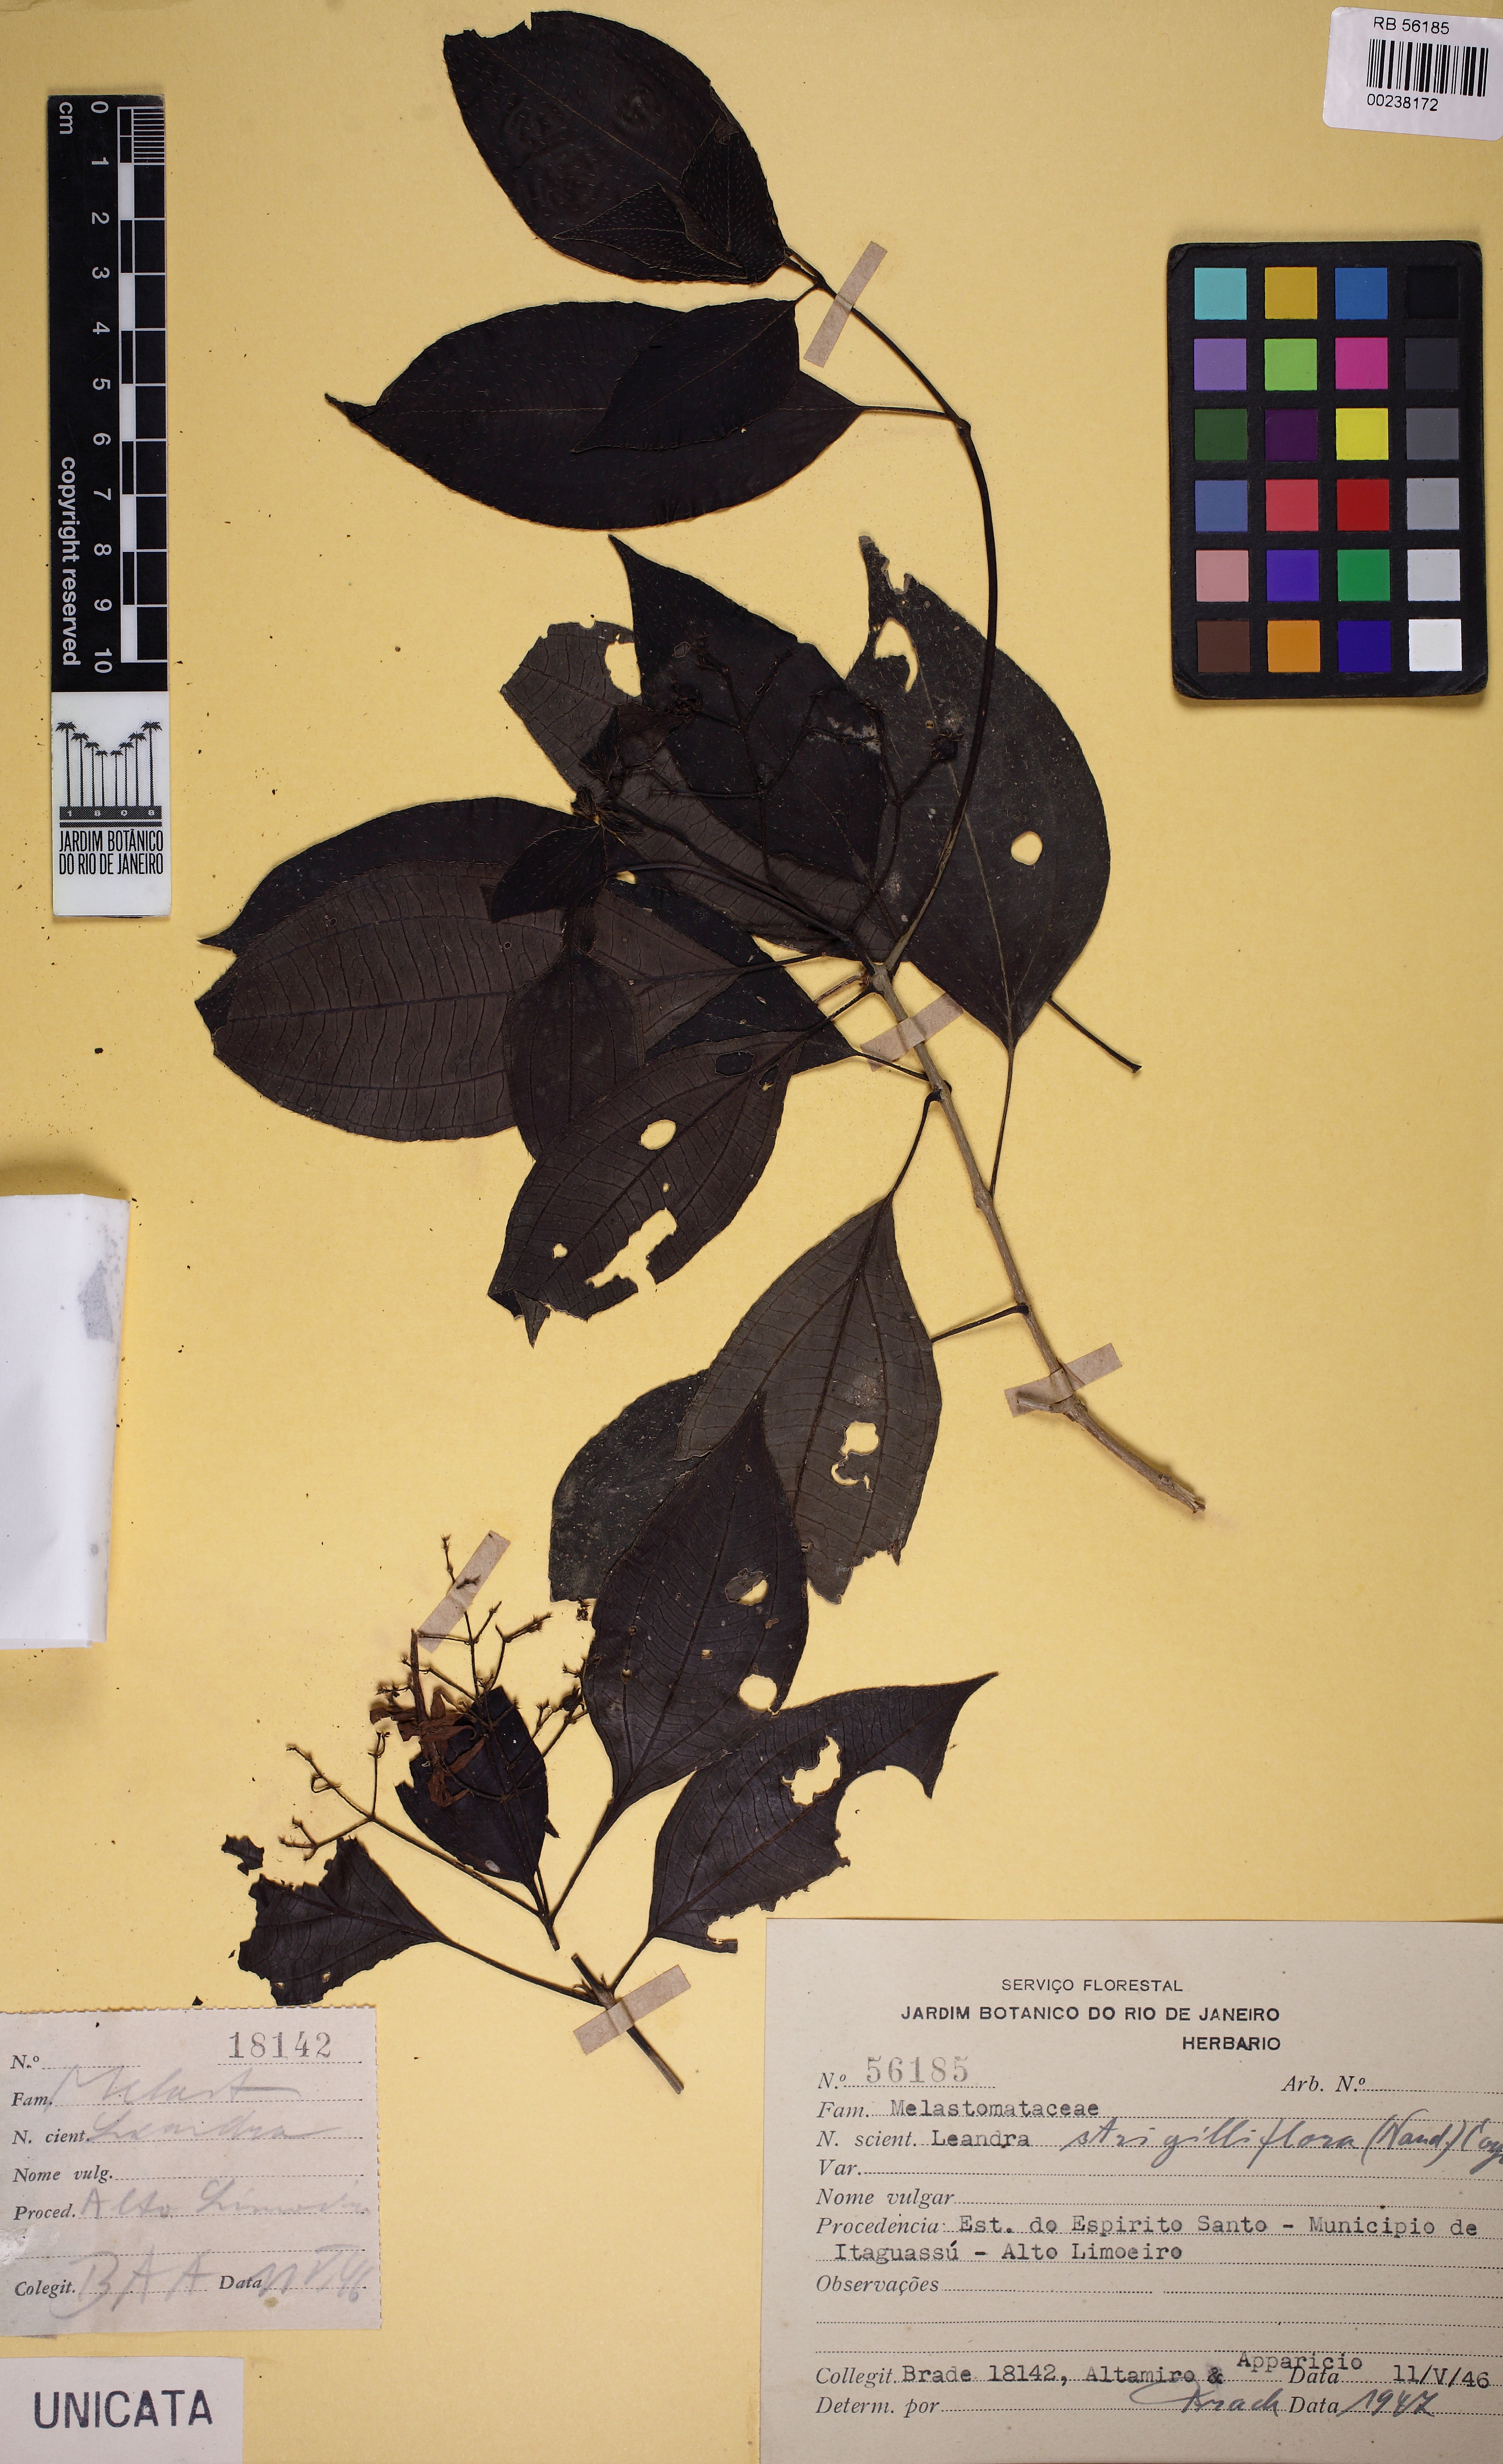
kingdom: Plantae
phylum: Tracheophyta
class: Magnoliopsida
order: Myrtales
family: Melastomataceae
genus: Miconia
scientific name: Miconia strigilliflora
